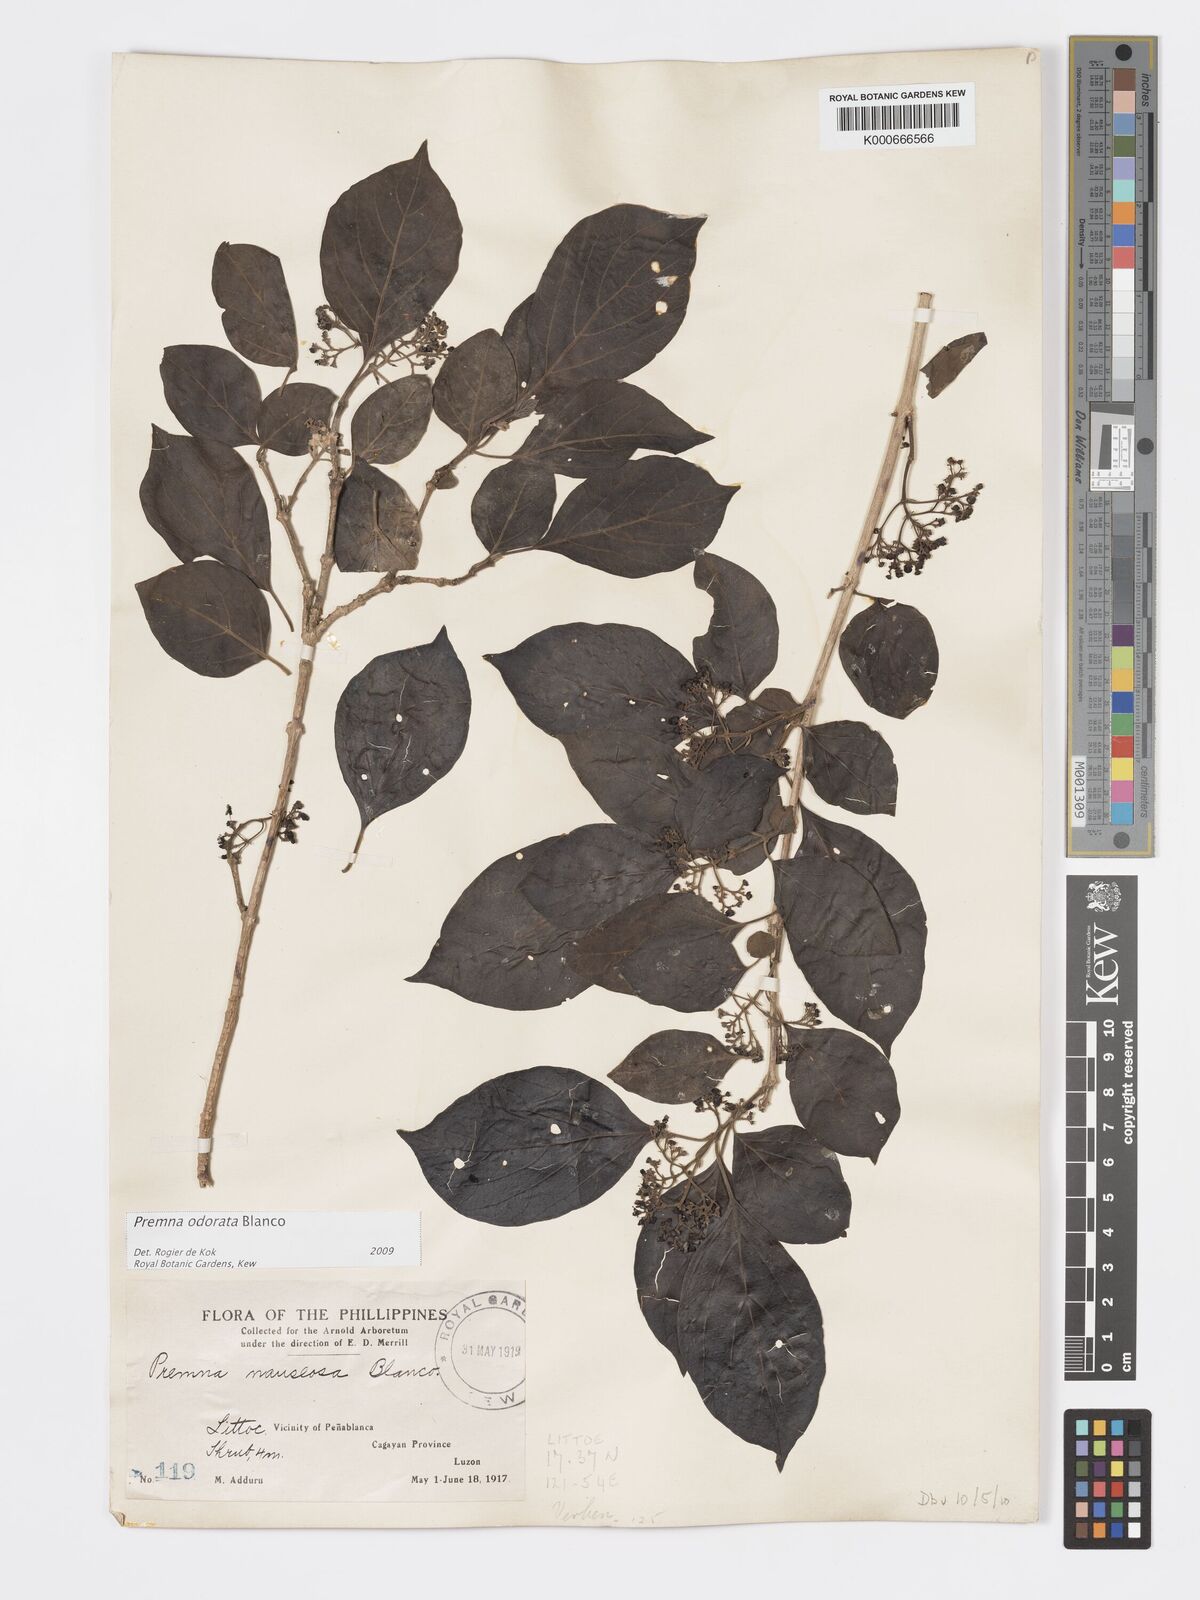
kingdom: Plantae
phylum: Tracheophyta
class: Magnoliopsida
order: Lamiales
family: Lamiaceae
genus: Premna
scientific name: Premna odorata
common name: Fragrant premna
